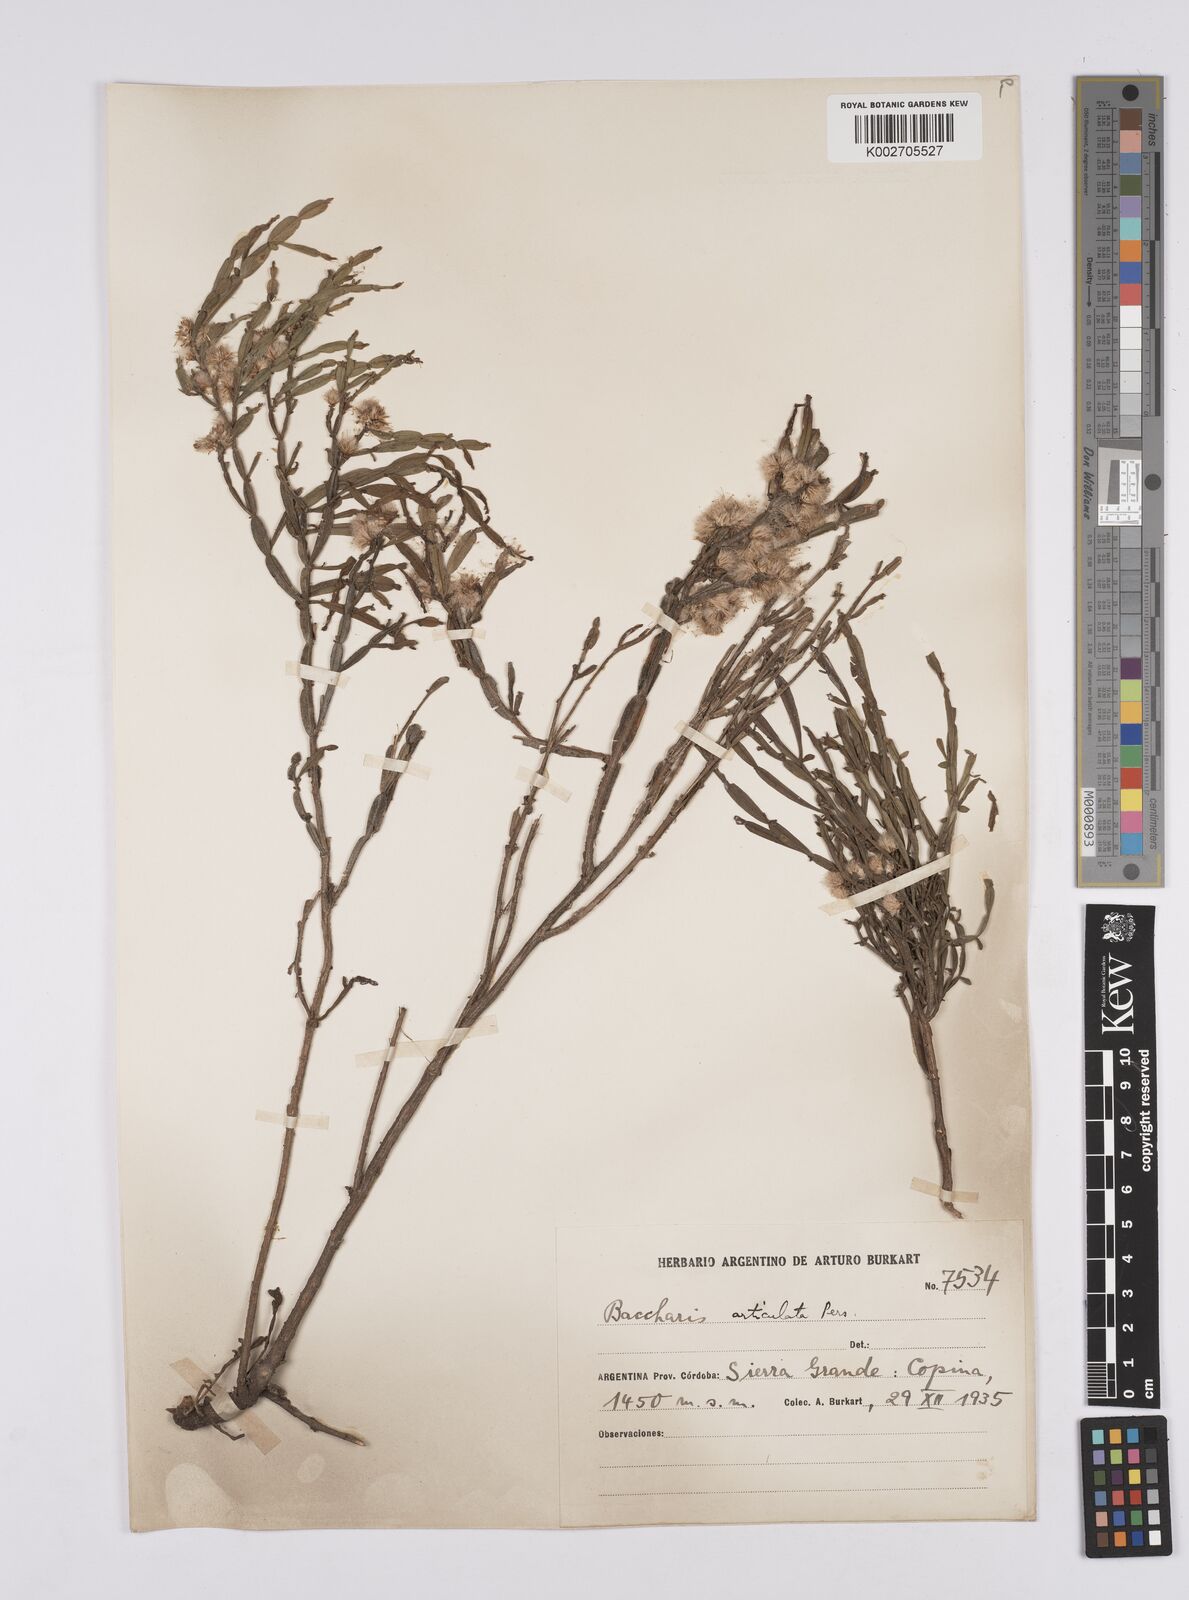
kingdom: Plantae
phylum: Tracheophyta
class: Magnoliopsida
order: Asterales
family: Asteraceae
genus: Baccharis
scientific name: Baccharis articulata
